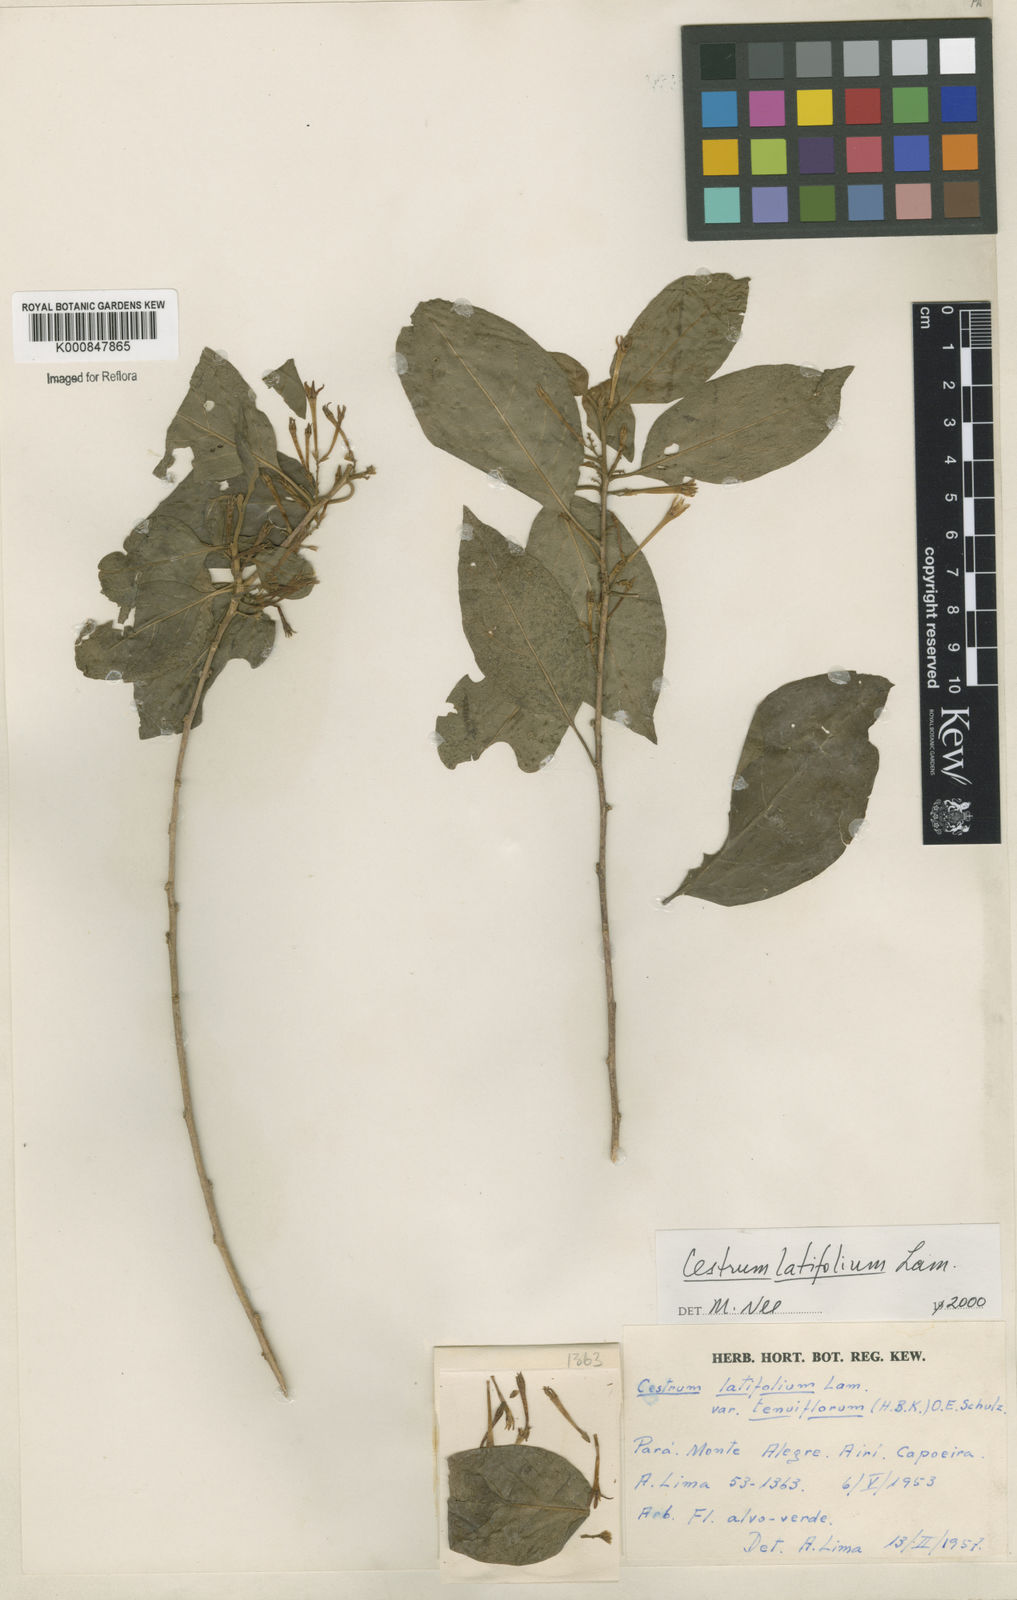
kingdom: Plantae
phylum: Tracheophyta
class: Magnoliopsida
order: Solanales
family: Solanaceae
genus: Cestrum
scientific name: Cestrum latifolium
